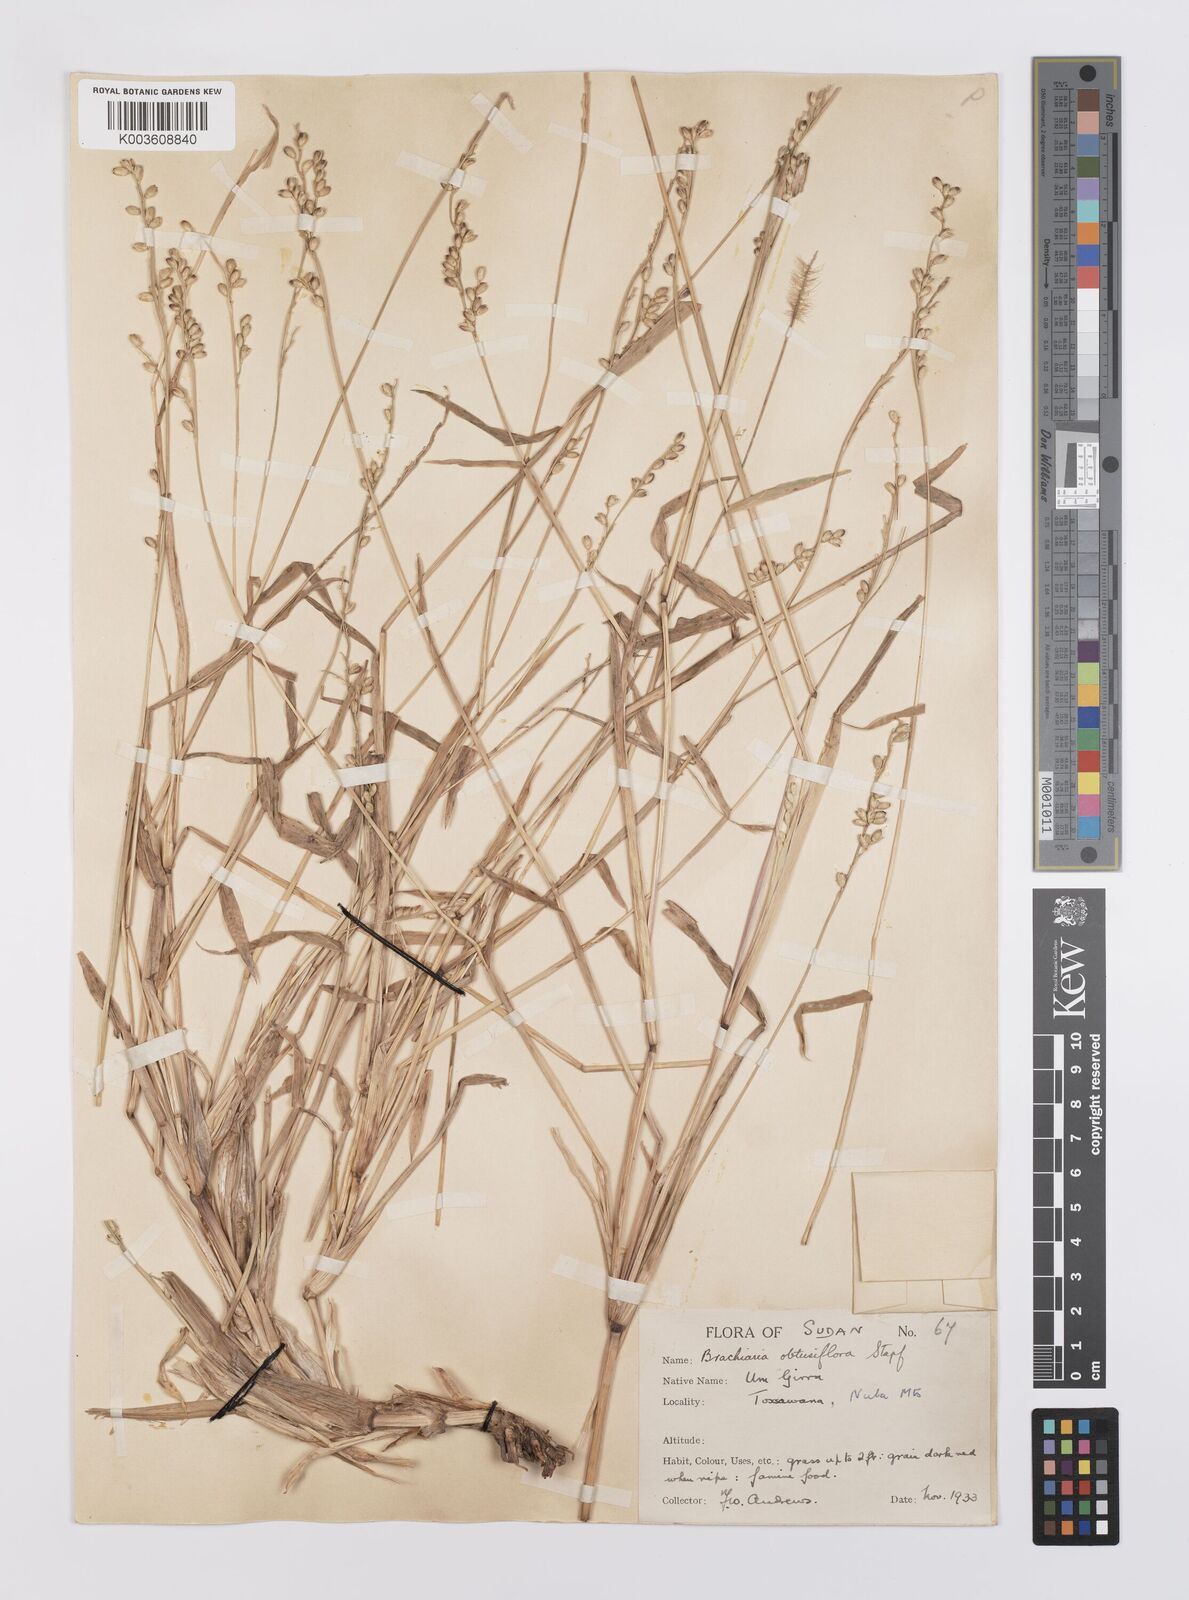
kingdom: Plantae
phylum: Tracheophyta
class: Liliopsida
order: Poales
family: Poaceae
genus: Echinochloa
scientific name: Echinochloa rotundiflora
